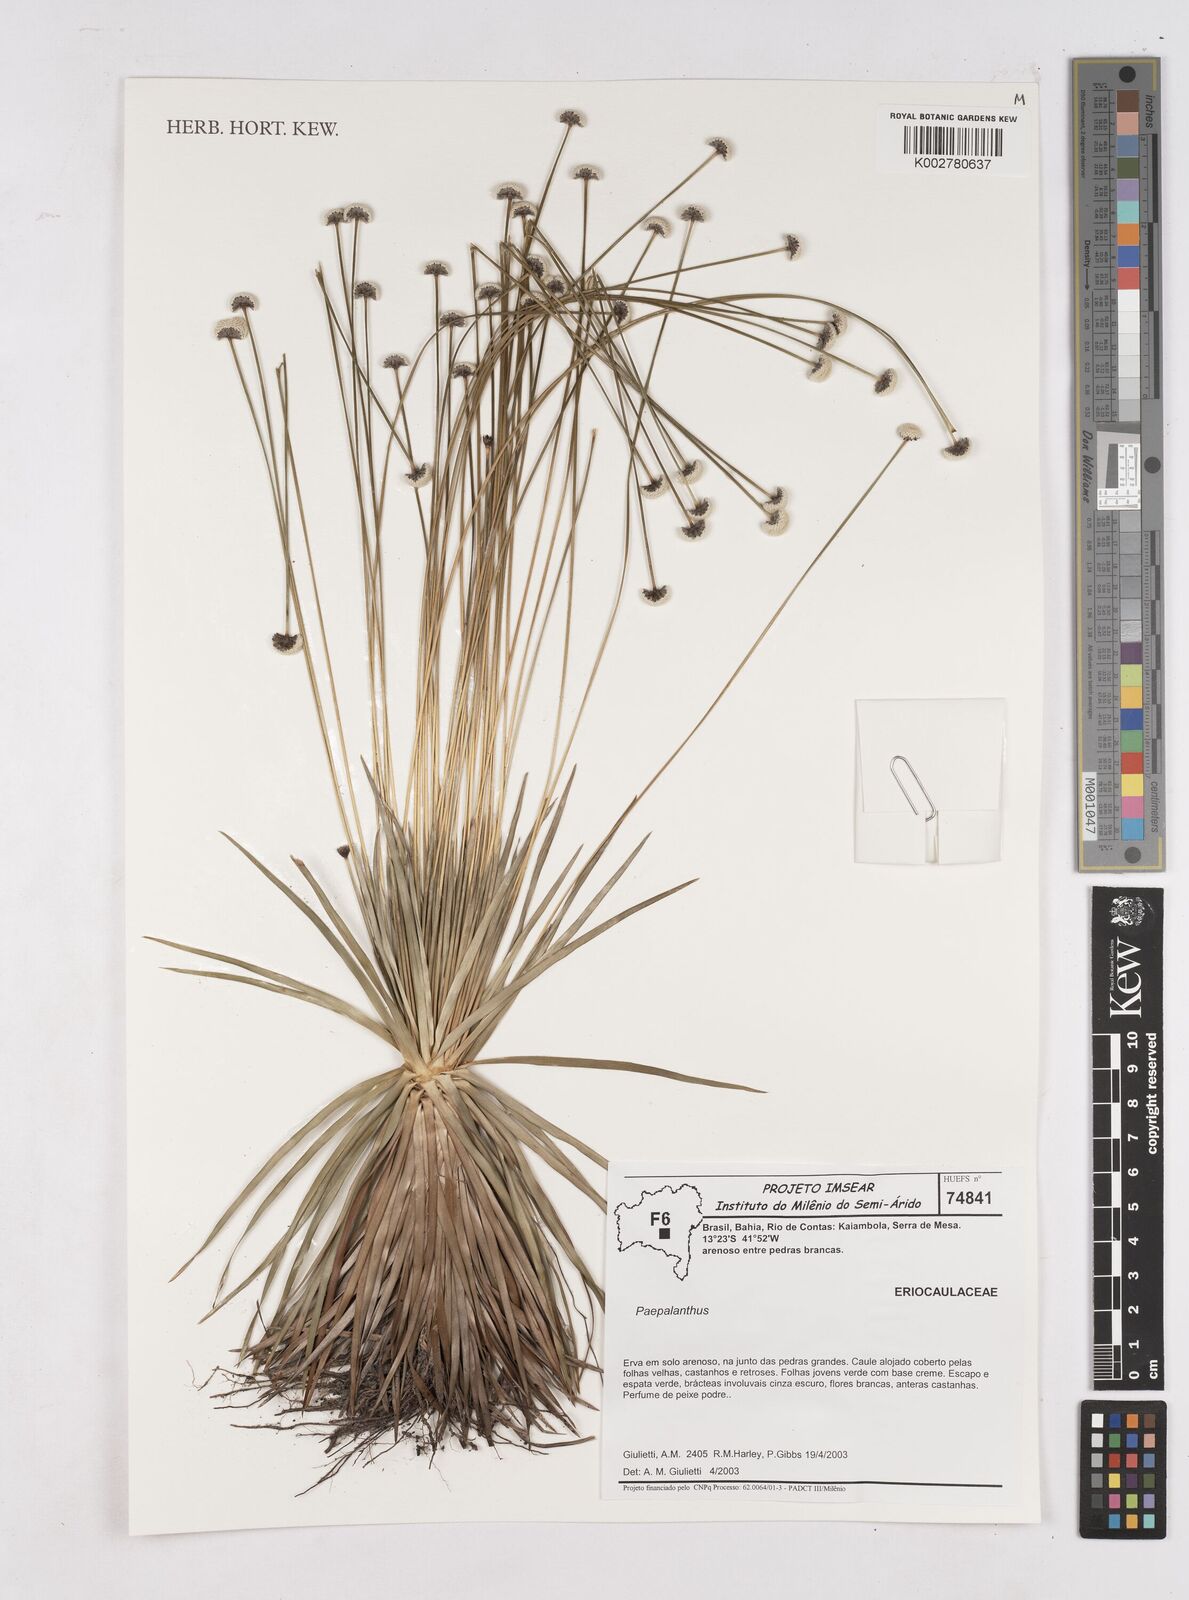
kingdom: Plantae
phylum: Tracheophyta
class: Liliopsida
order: Poales
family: Eriocaulaceae
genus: Paepalanthus
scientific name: Paepalanthus microcaulon
